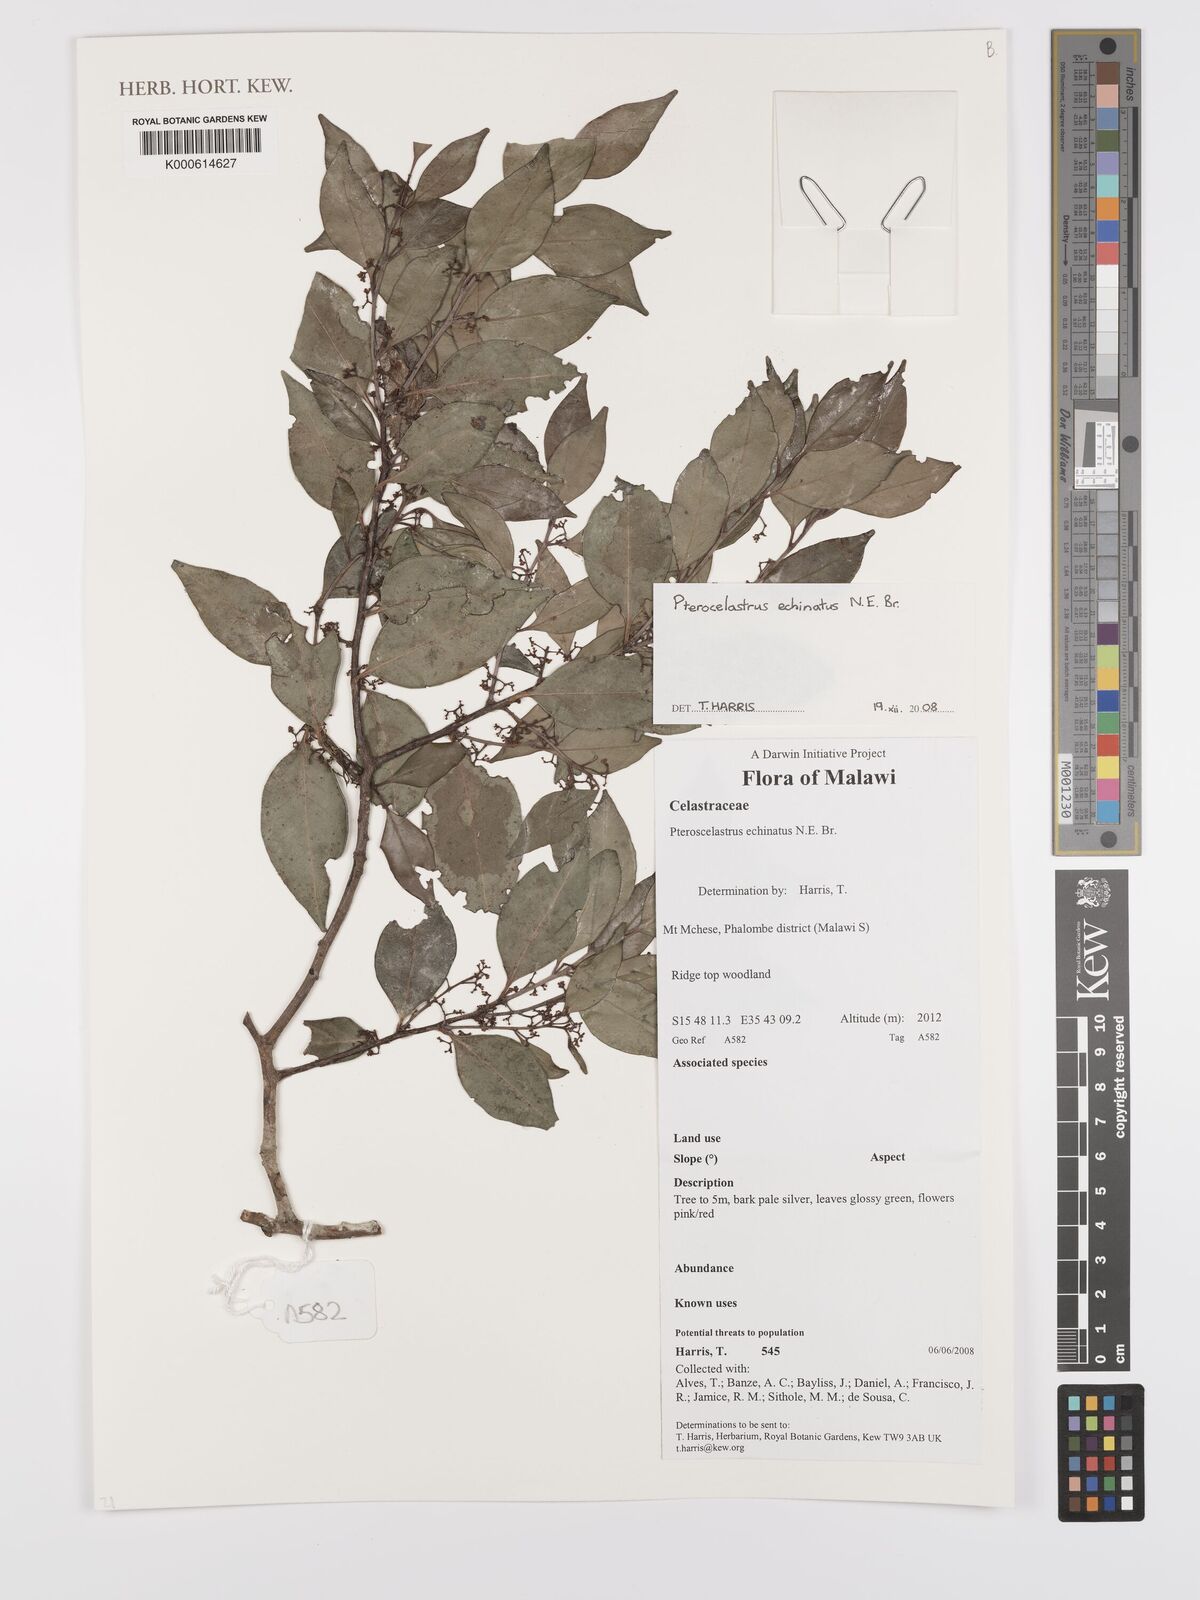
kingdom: Plantae
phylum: Tracheophyta
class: Magnoliopsida
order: Celastrales
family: Celastraceae
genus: Pterocelastrus
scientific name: Pterocelastrus echinatus
